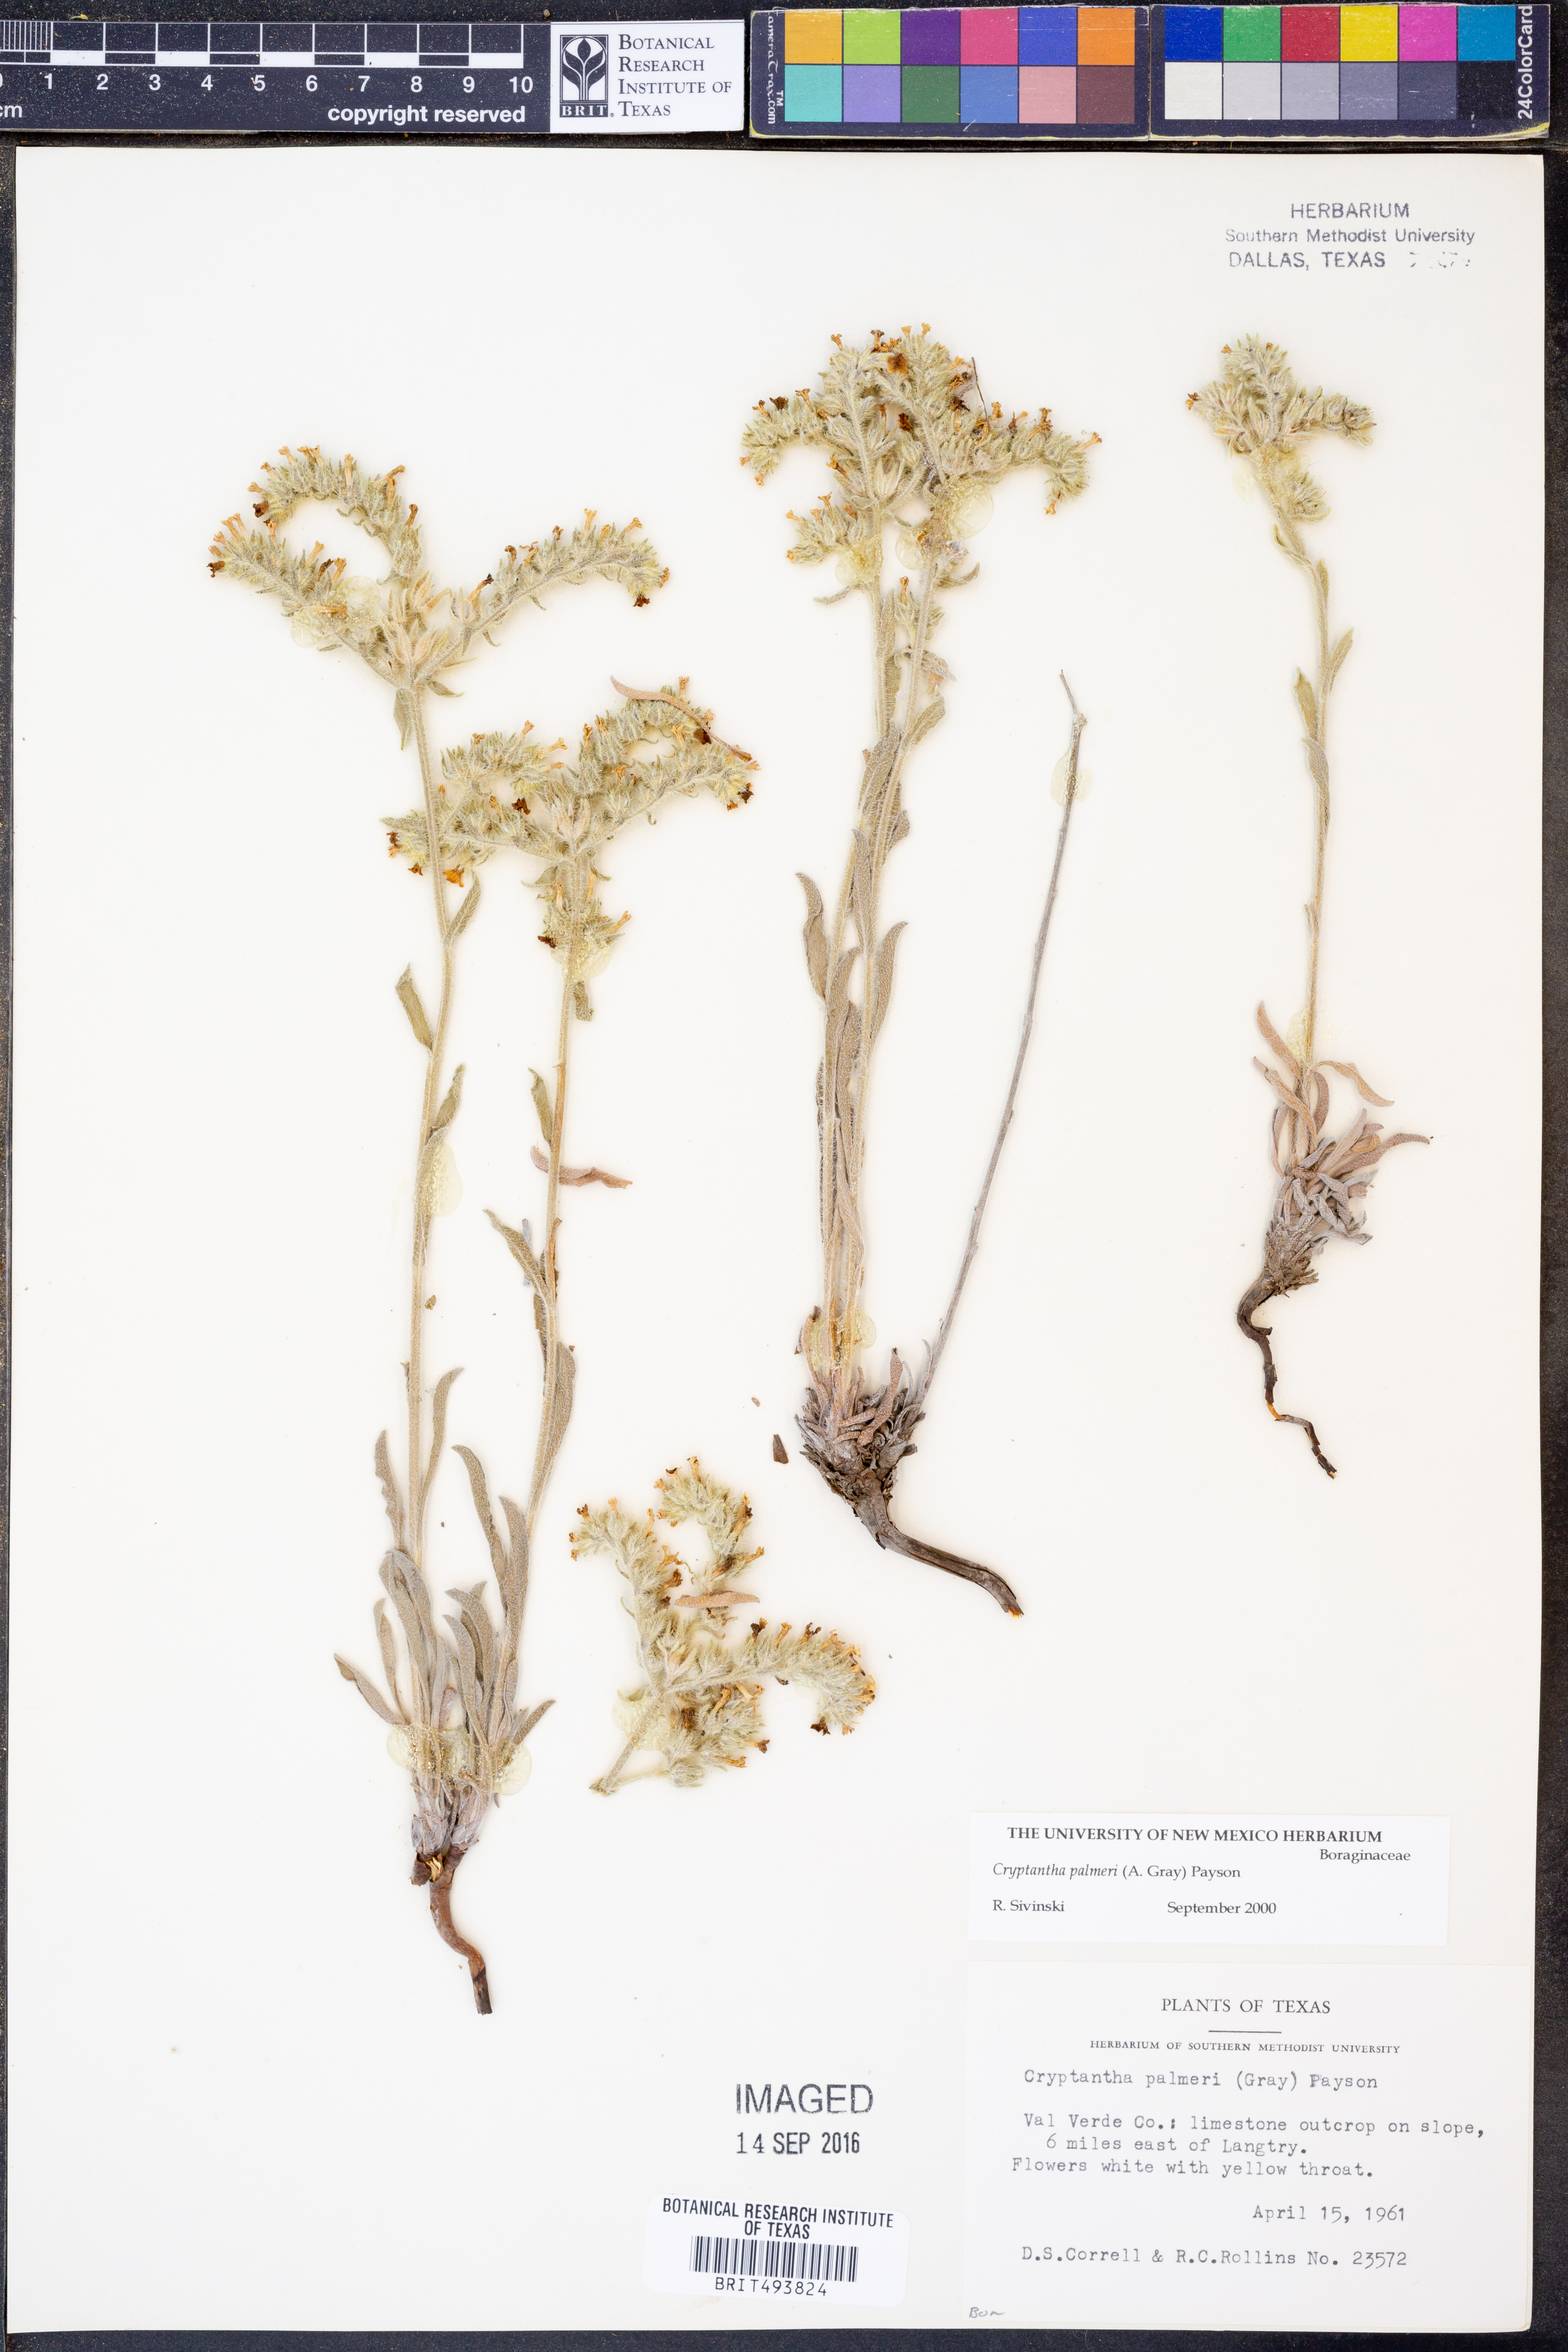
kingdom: Plantae
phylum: Tracheophyta
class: Magnoliopsida
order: Boraginales
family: Boraginaceae
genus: Oreocarya
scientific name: Oreocarya palmeri
